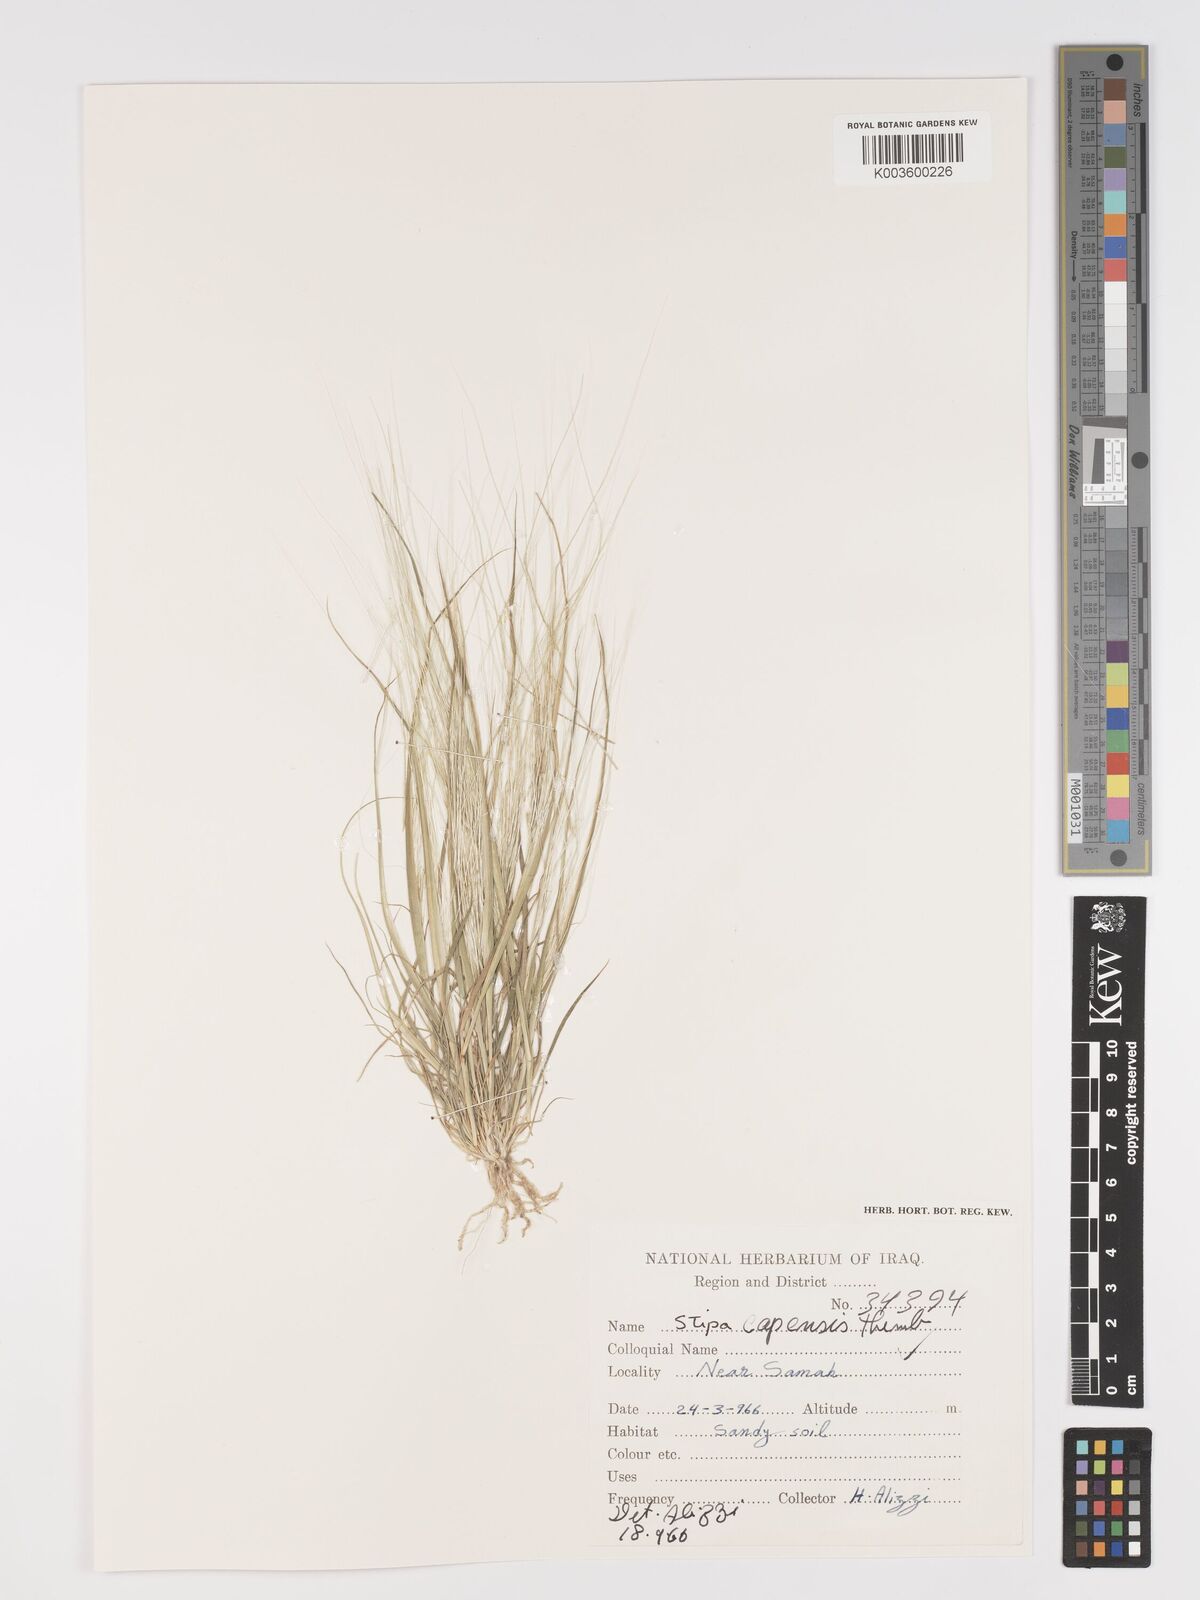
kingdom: Plantae
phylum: Tracheophyta
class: Liliopsida
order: Poales
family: Poaceae
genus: Stipellula
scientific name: Stipellula capensis
